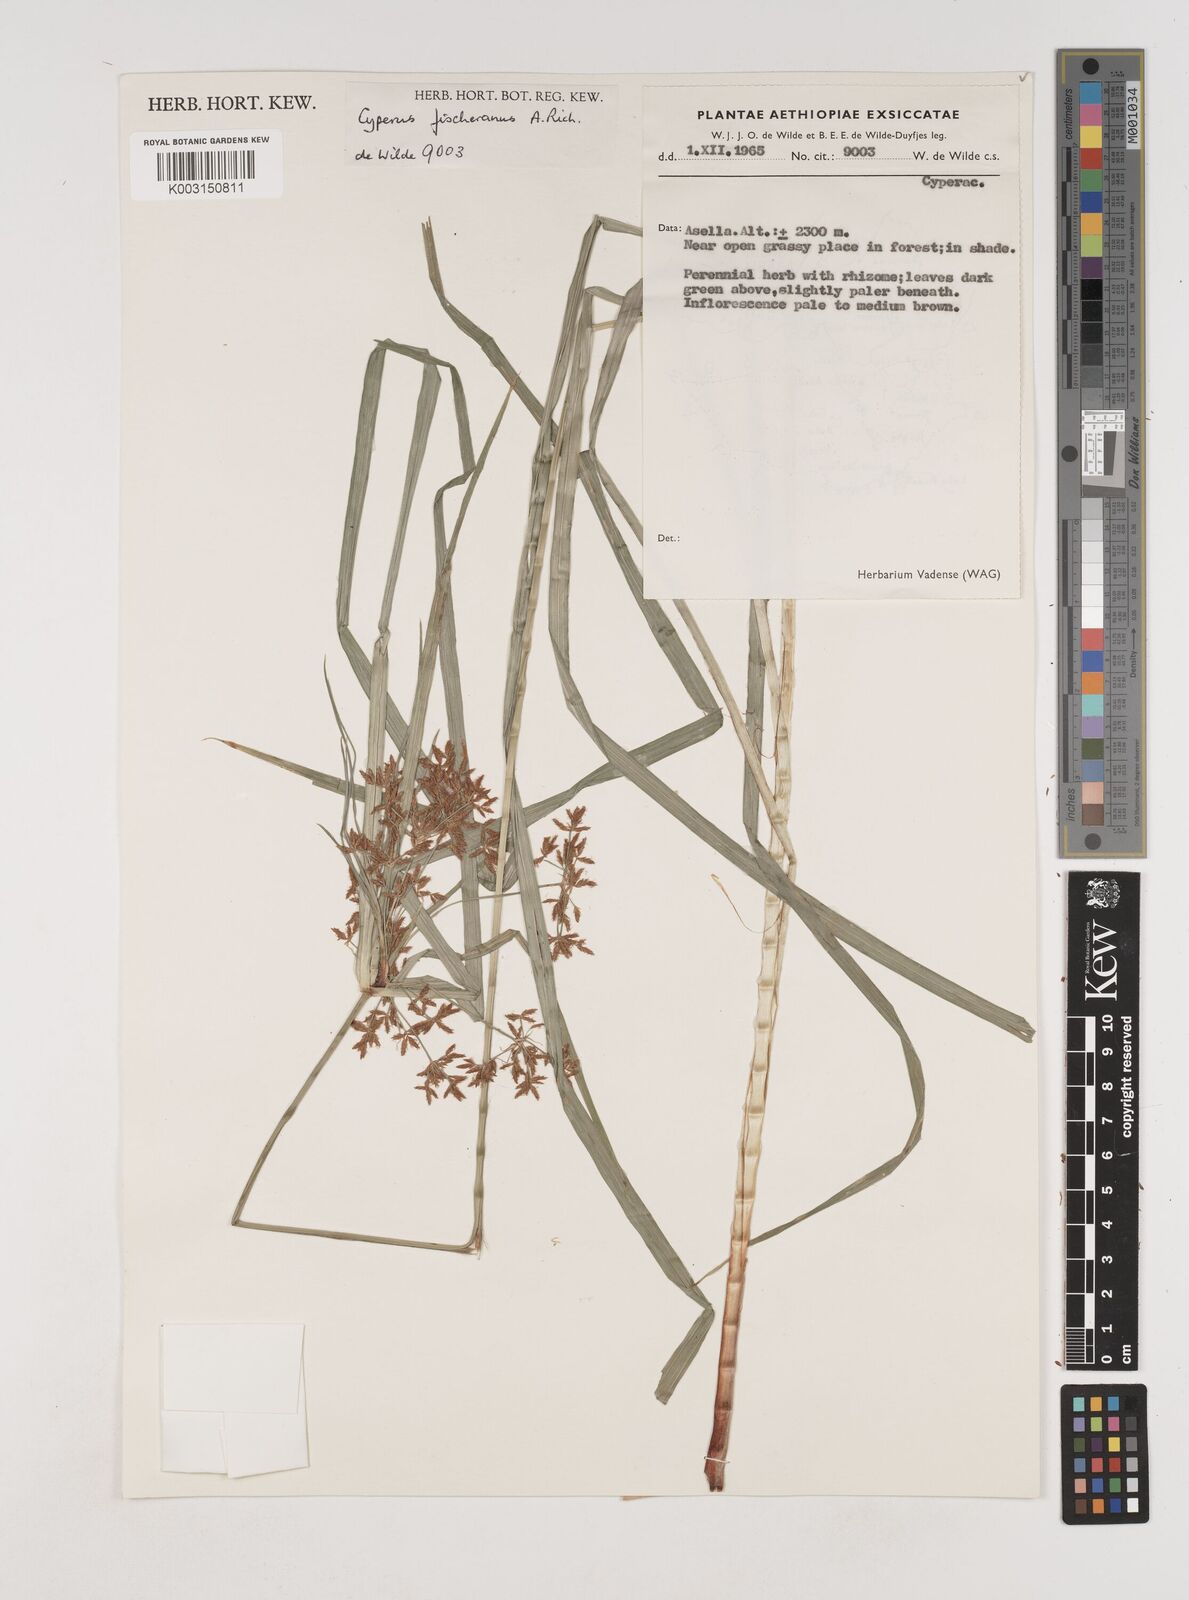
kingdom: Plantae
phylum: Tracheophyta
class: Liliopsida
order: Poales
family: Cyperaceae
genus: Cyperus
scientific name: Cyperus fischerianus
